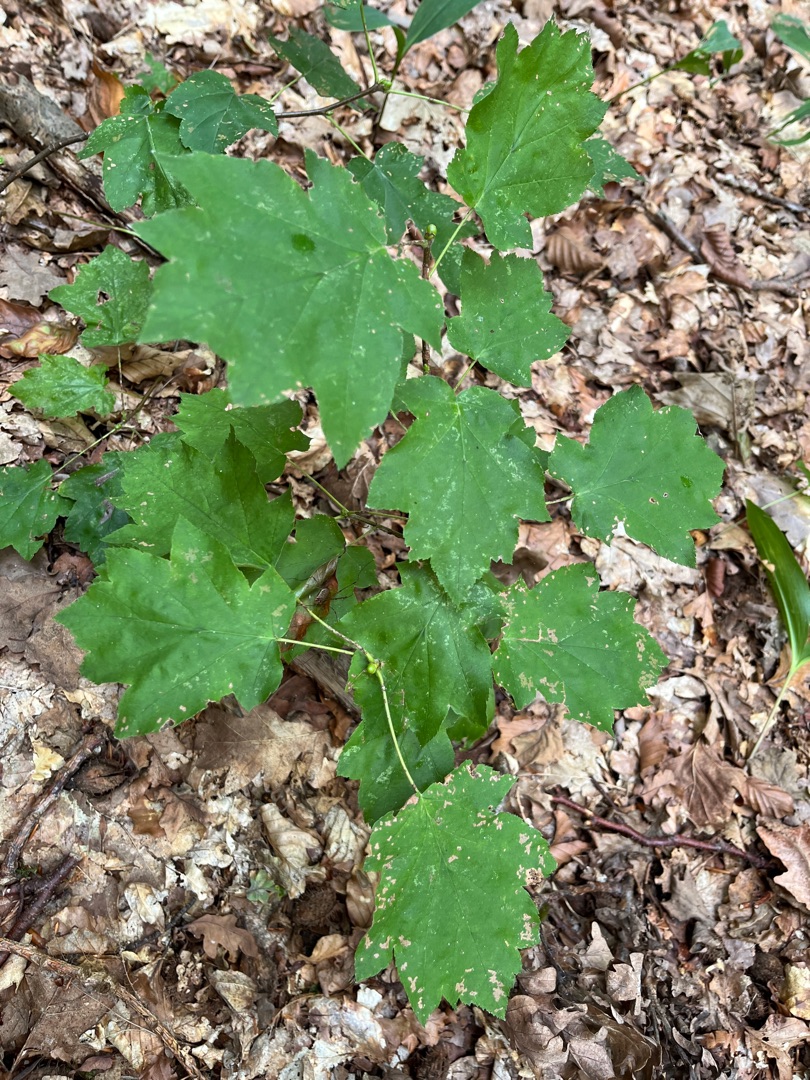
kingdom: Plantae
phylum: Tracheophyta
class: Magnoliopsida
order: Rosales
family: Rosaceae
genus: Torminalis
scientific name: Torminalis glaberrima
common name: Tarmvrid-røn
